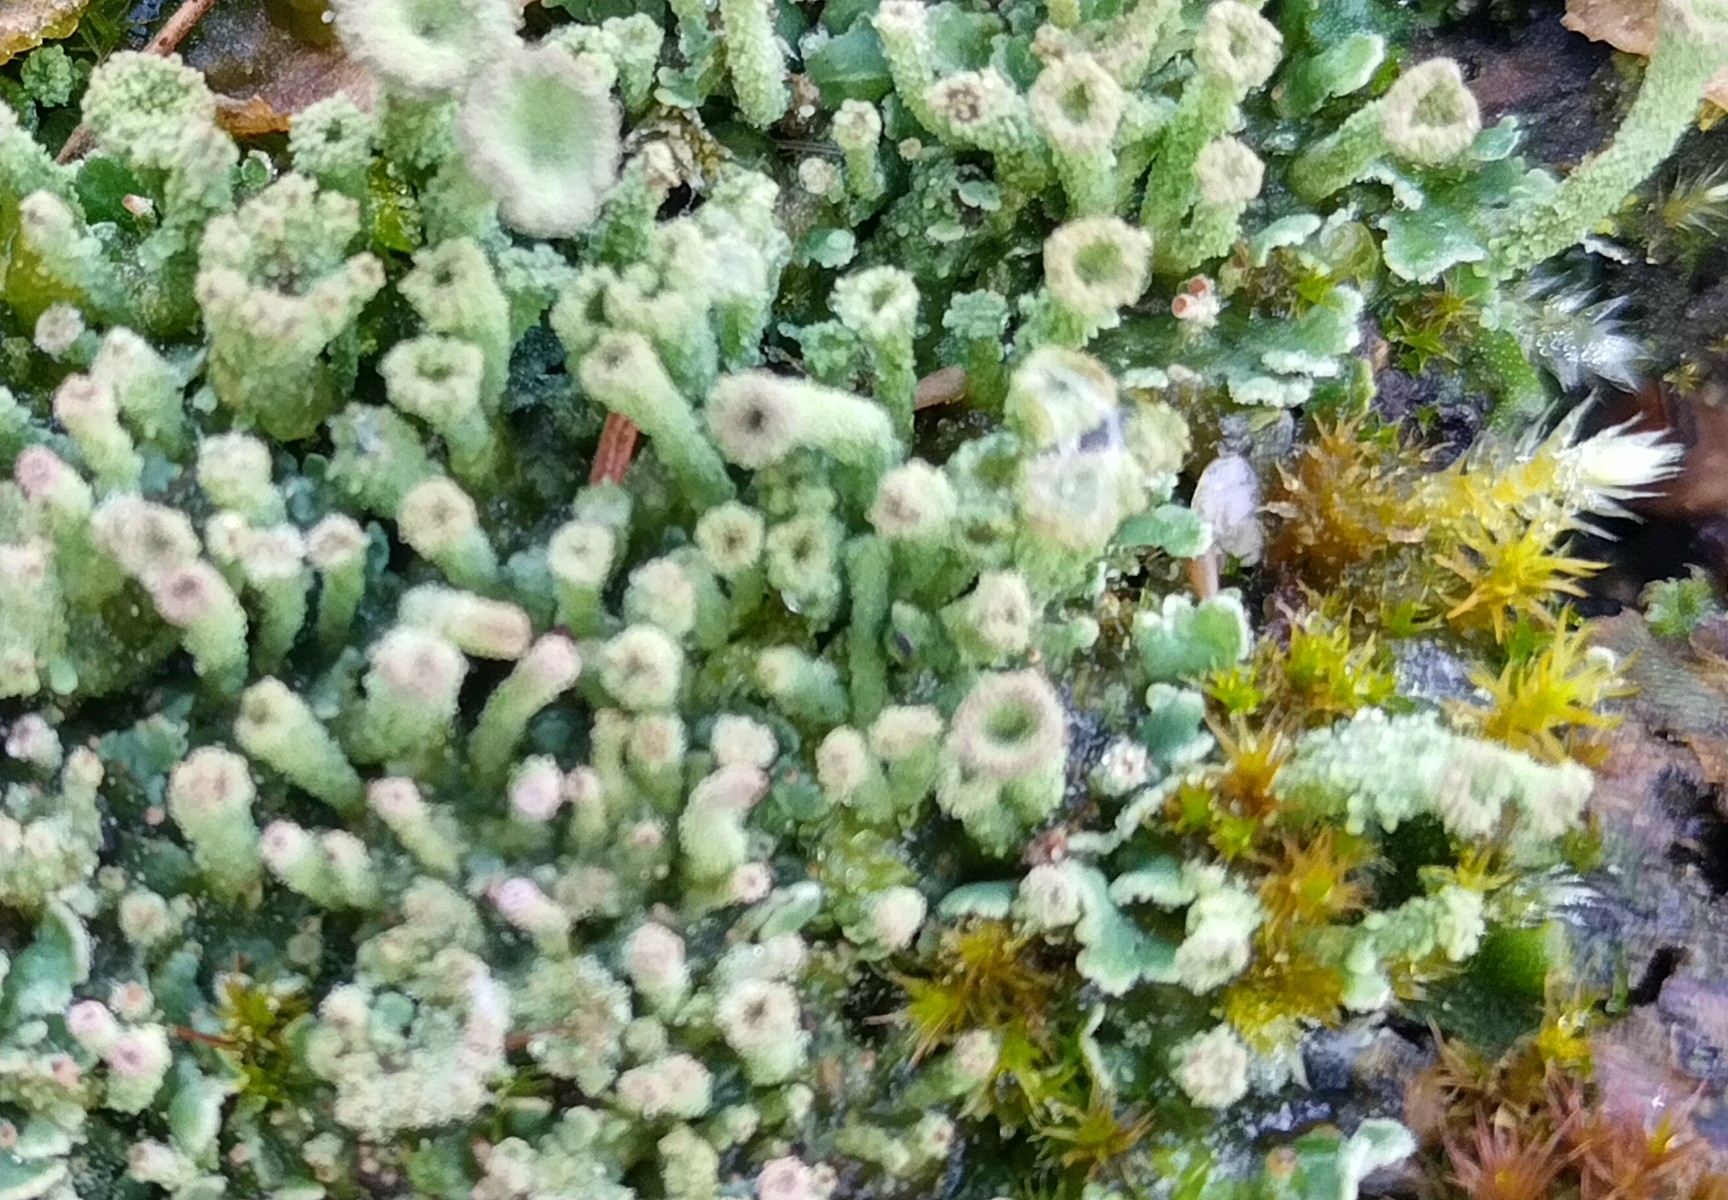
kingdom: Fungi
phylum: Ascomycota
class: Lecanoromycetes
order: Lecanorales
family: Cladoniaceae
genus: Cladonia
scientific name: Cladonia
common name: brungrøn bægerlav
